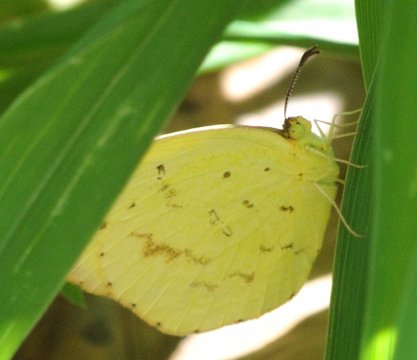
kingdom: Animalia
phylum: Arthropoda
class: Insecta
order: Lepidoptera
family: Pieridae
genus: Eurema
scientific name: Eurema desjardinsii
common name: Angled Grass Yellow
